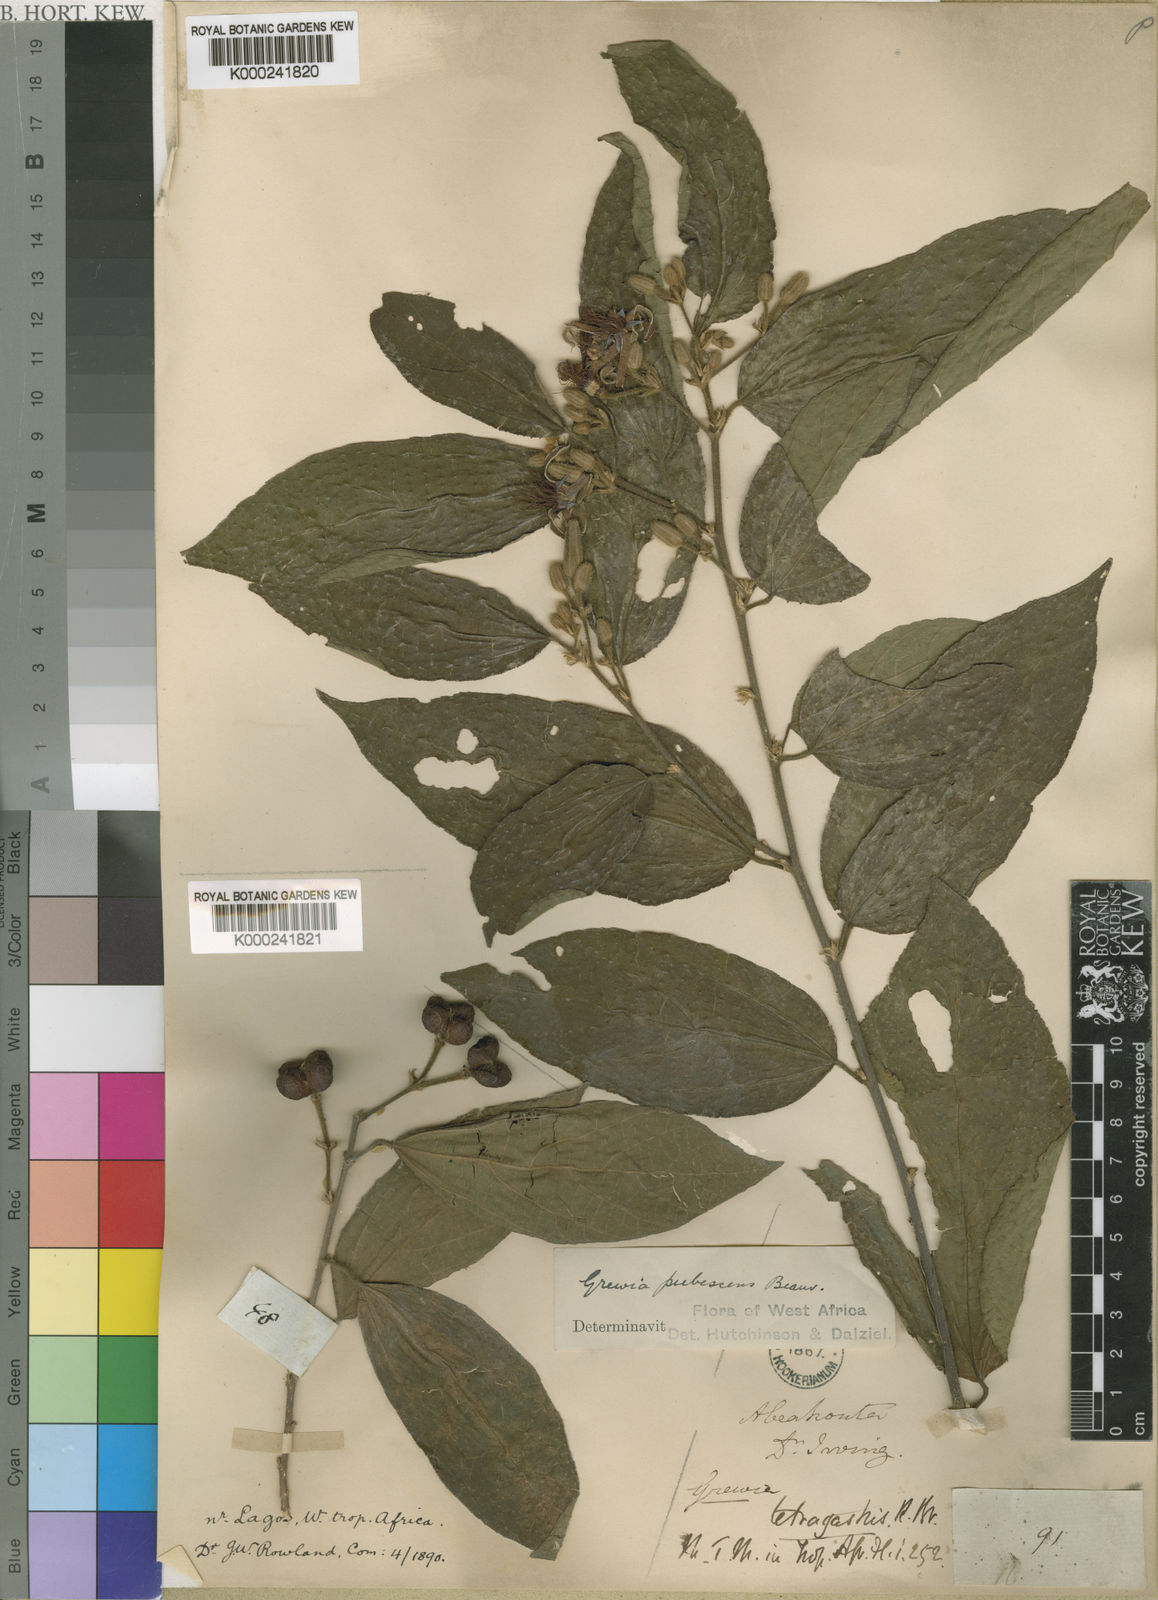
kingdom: Plantae
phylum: Tracheophyta
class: Magnoliopsida
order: Malvales
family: Malvaceae
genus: Grewia
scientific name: Grewia pubescens
